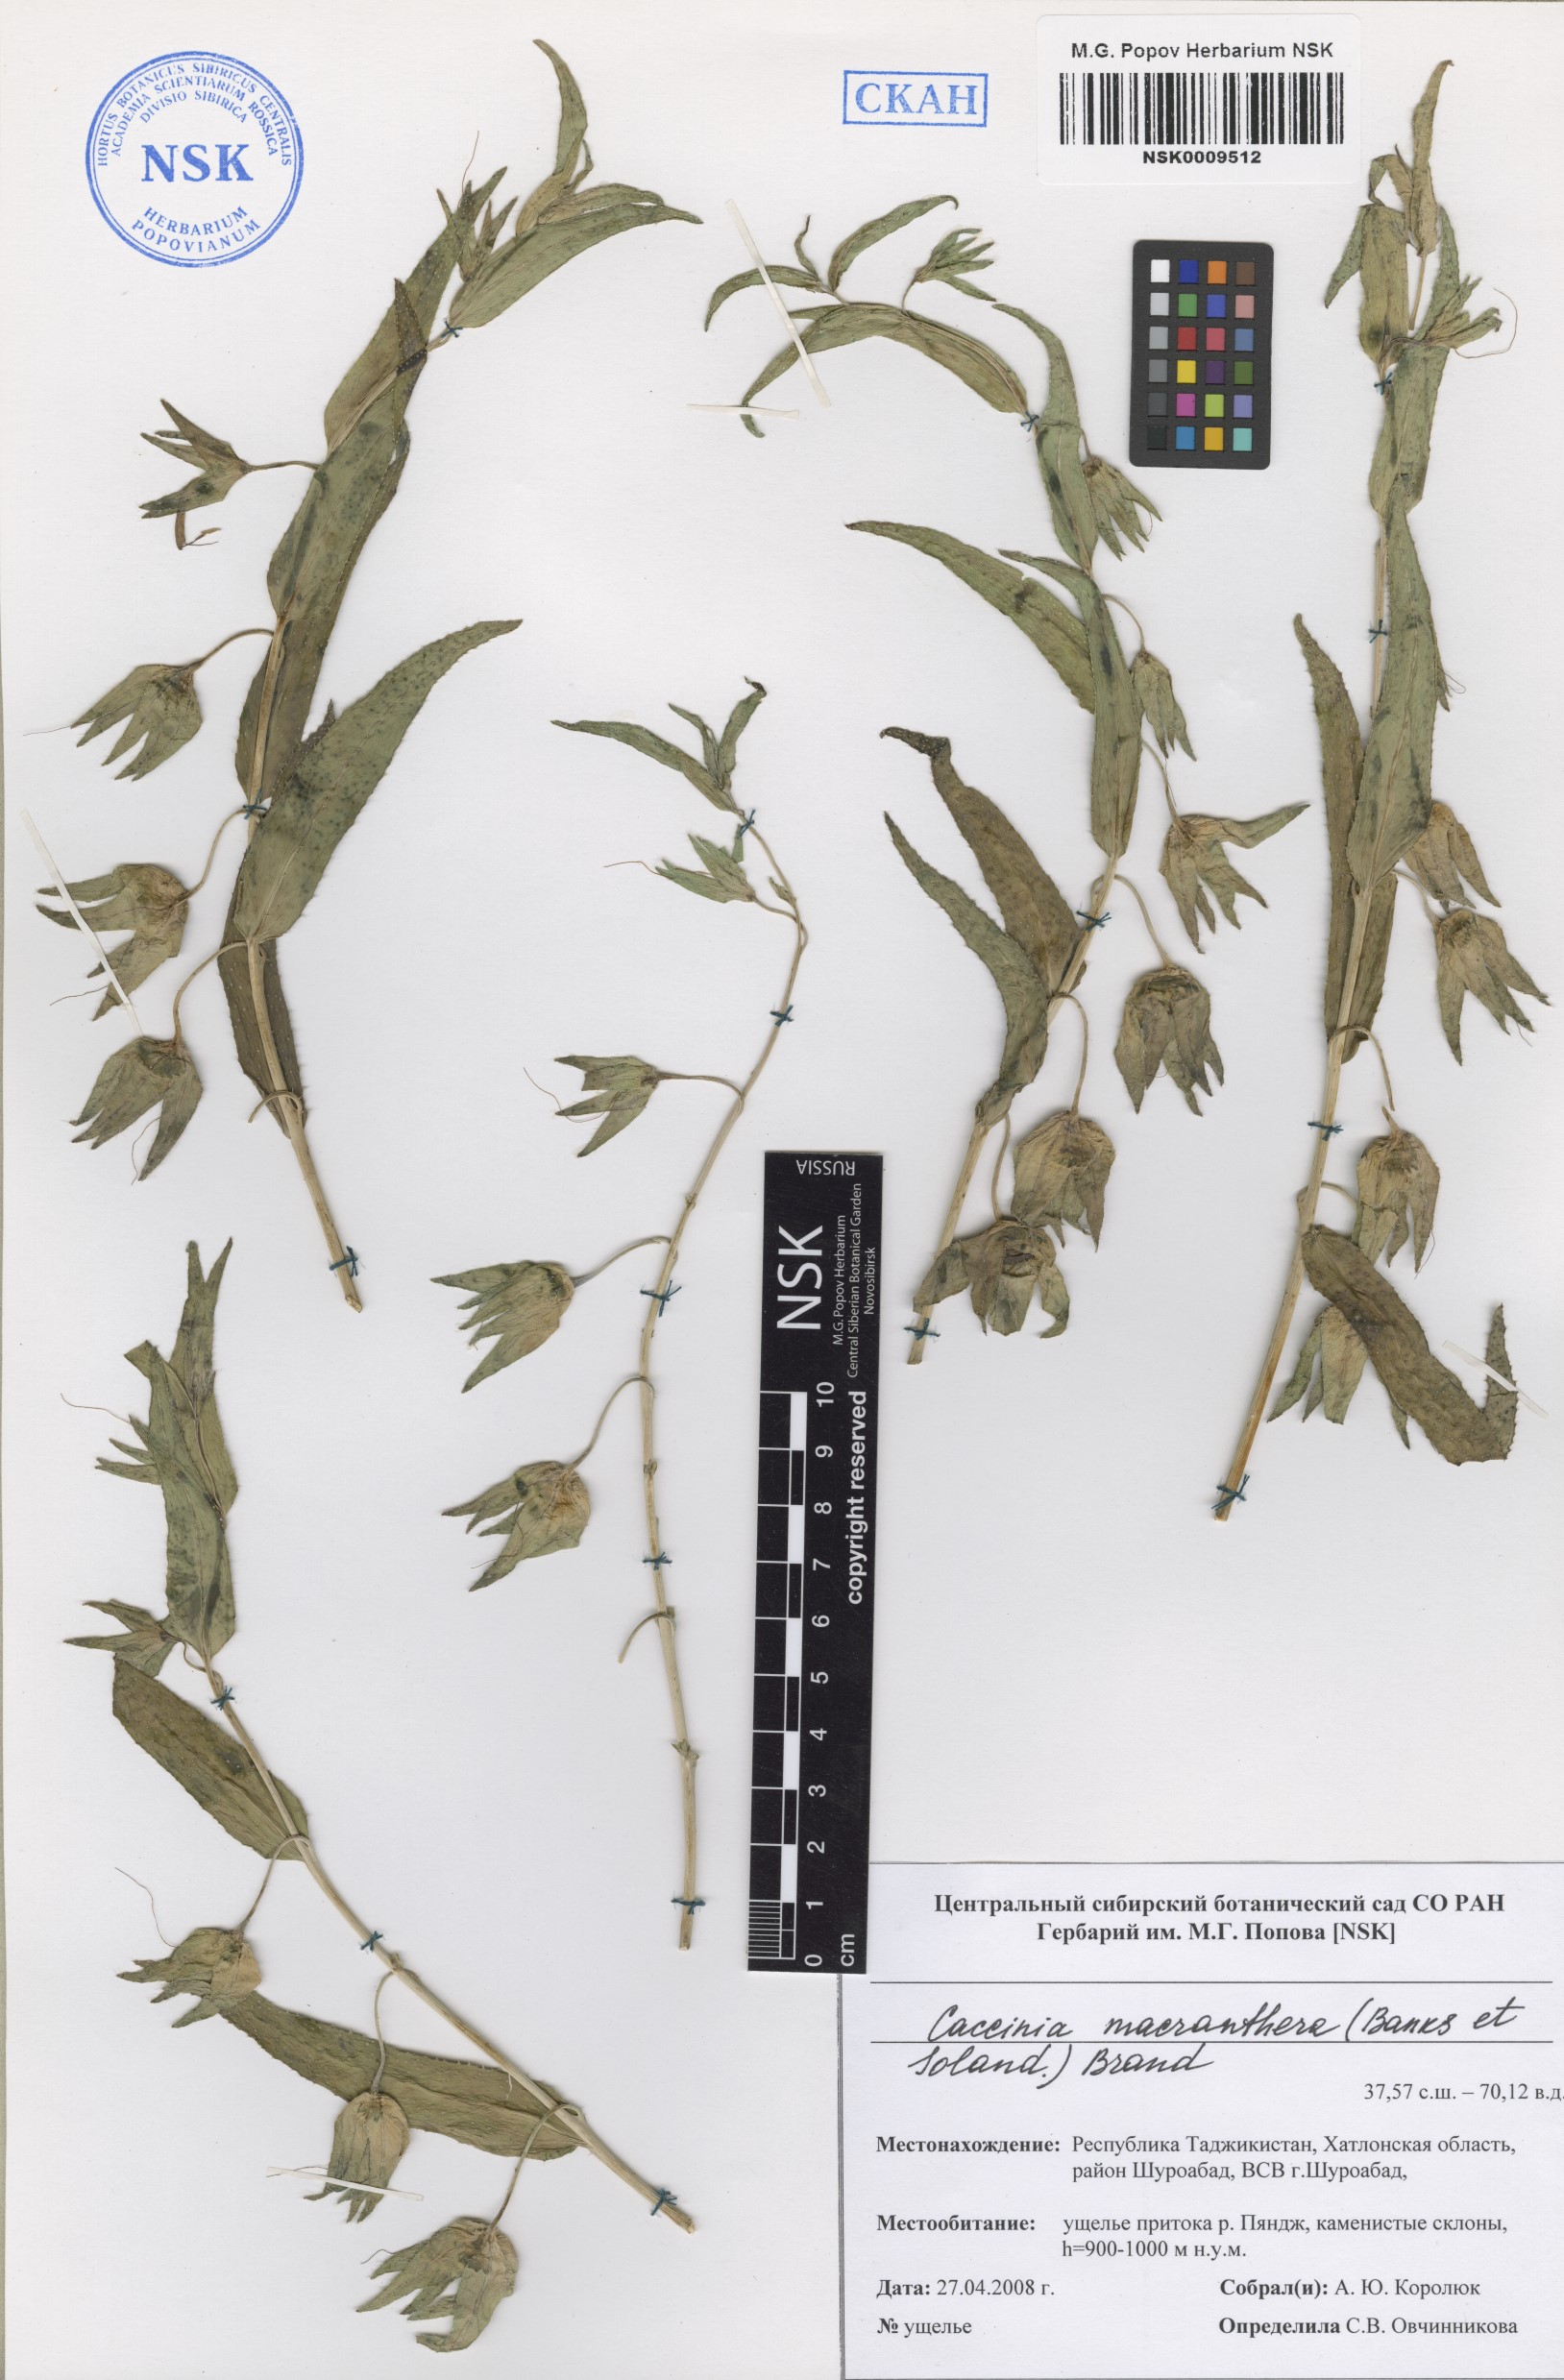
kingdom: Plantae
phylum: Tracheophyta
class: Magnoliopsida
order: Boraginales
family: Boraginaceae
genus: Caccinia
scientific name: Caccinia macranthera
